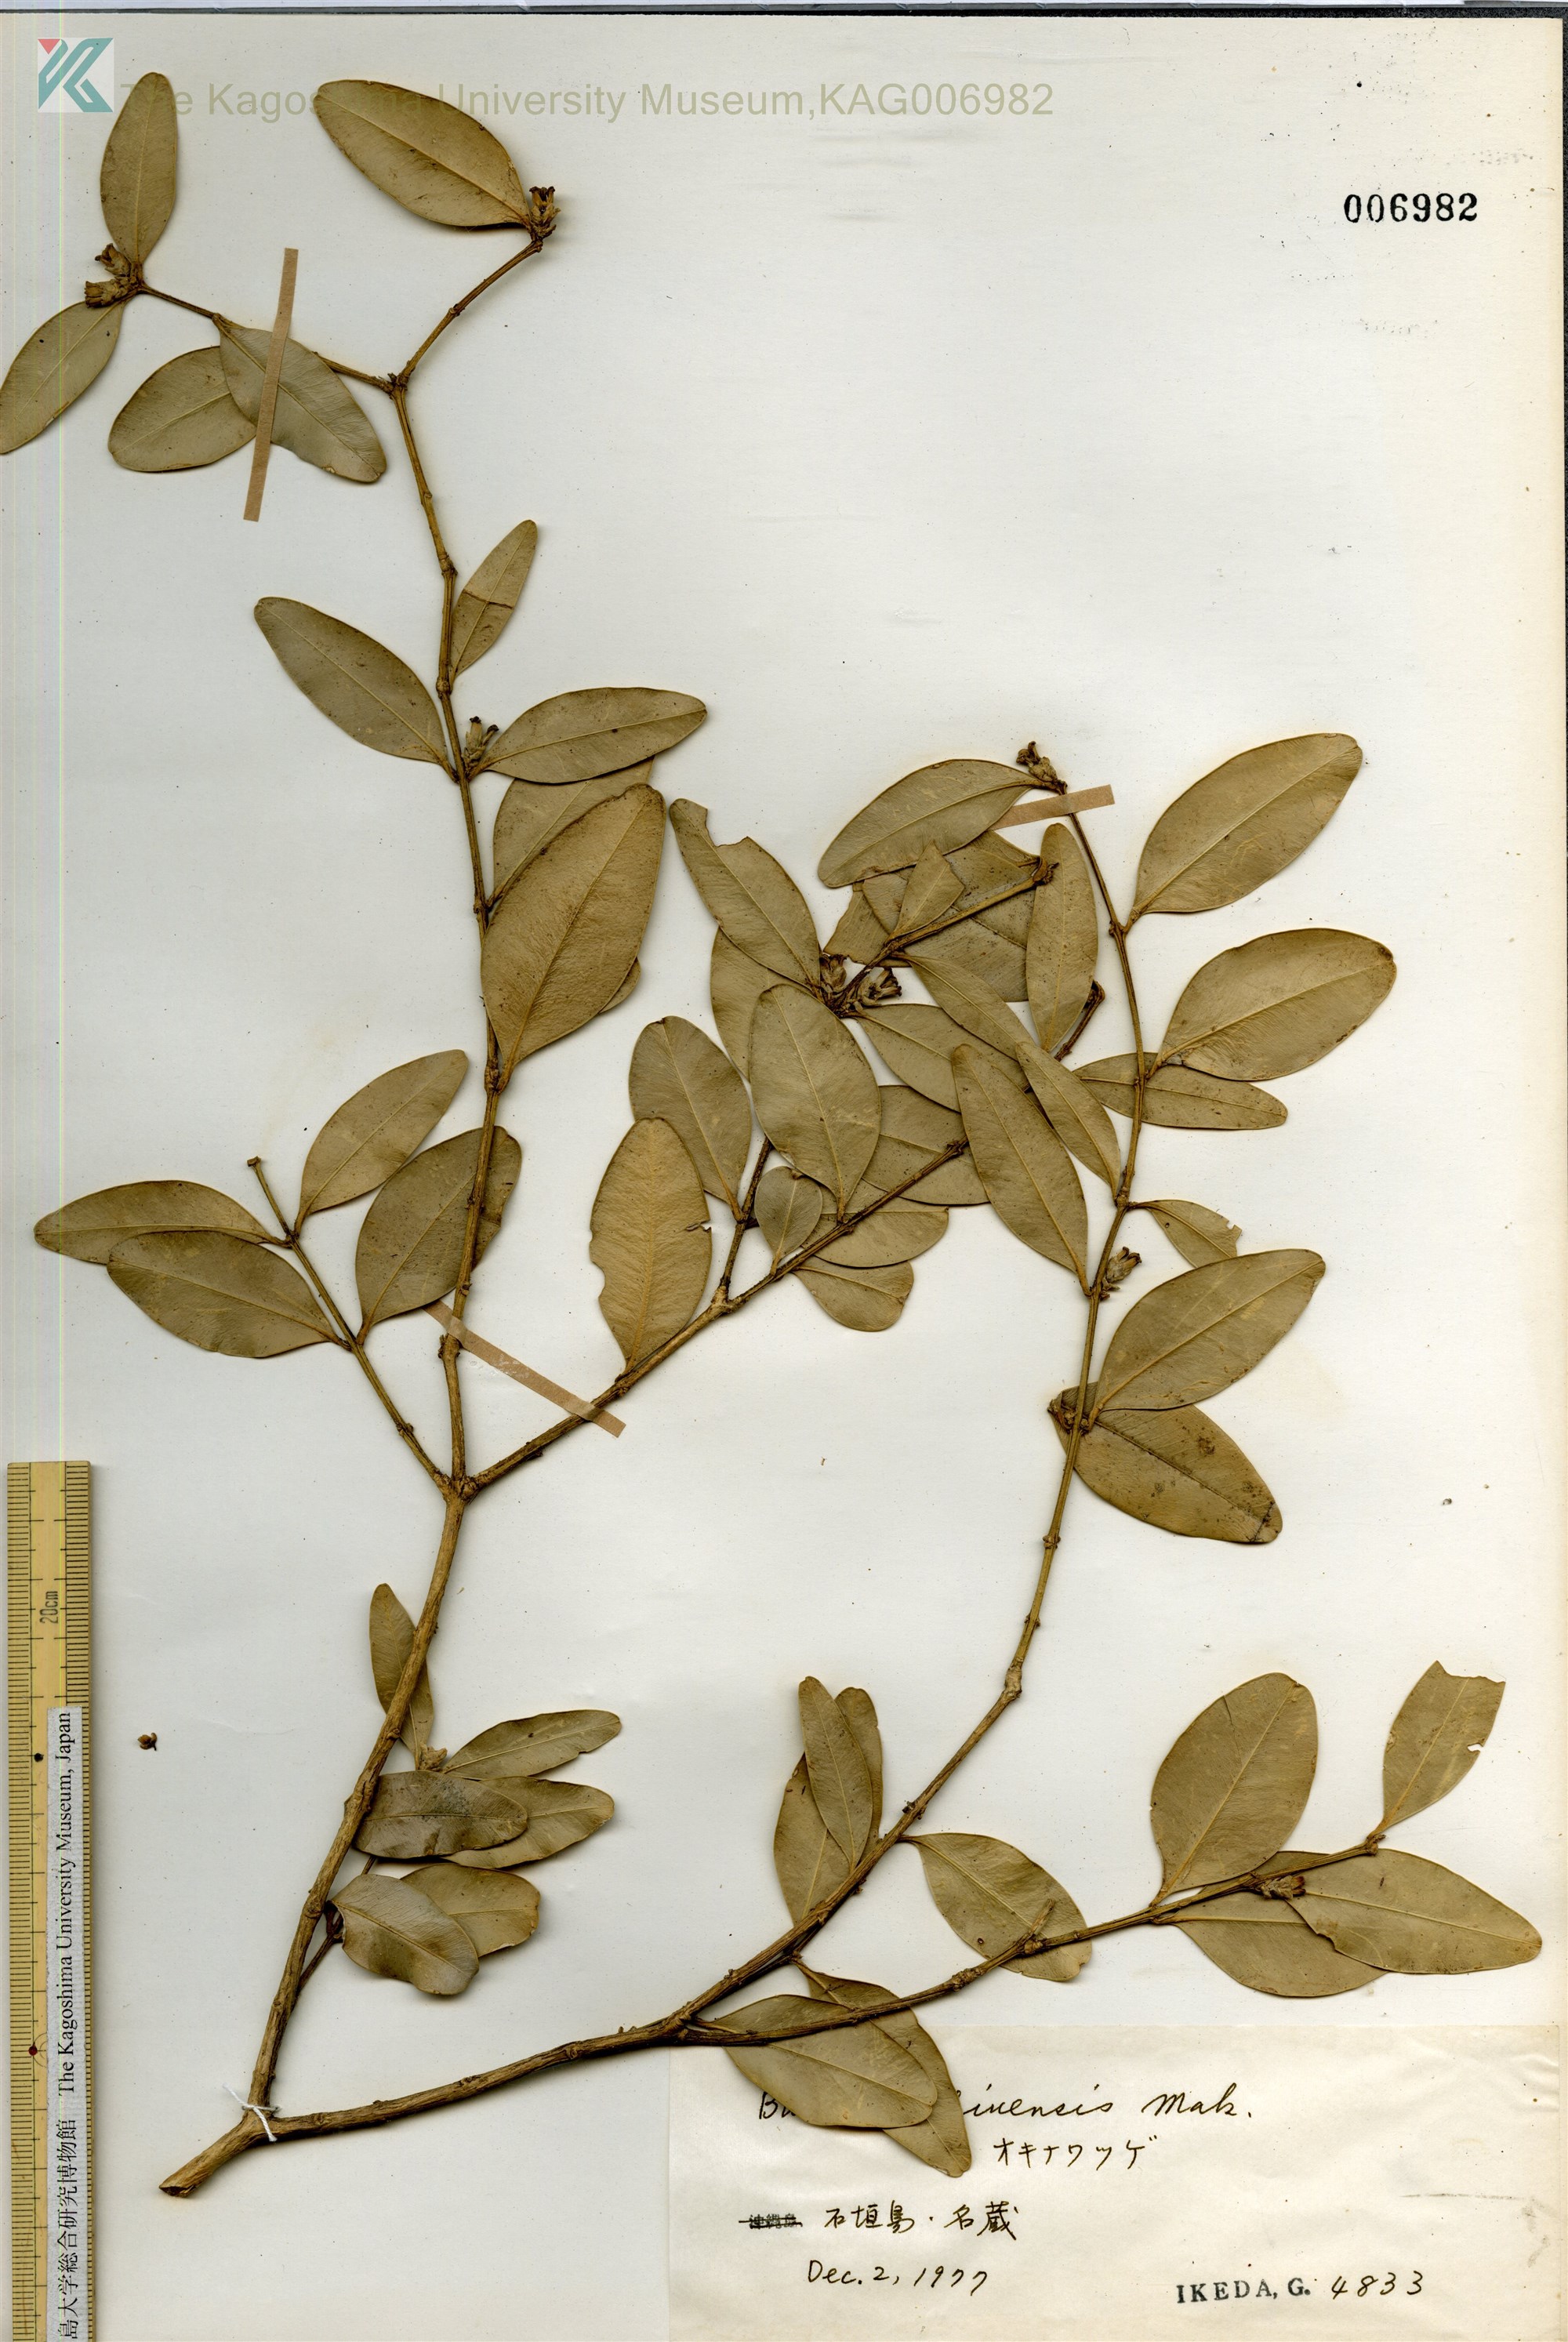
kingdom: Plantae
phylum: Tracheophyta
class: Magnoliopsida
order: Buxales
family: Buxaceae
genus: Buxus
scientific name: Buxus liukiuensis
